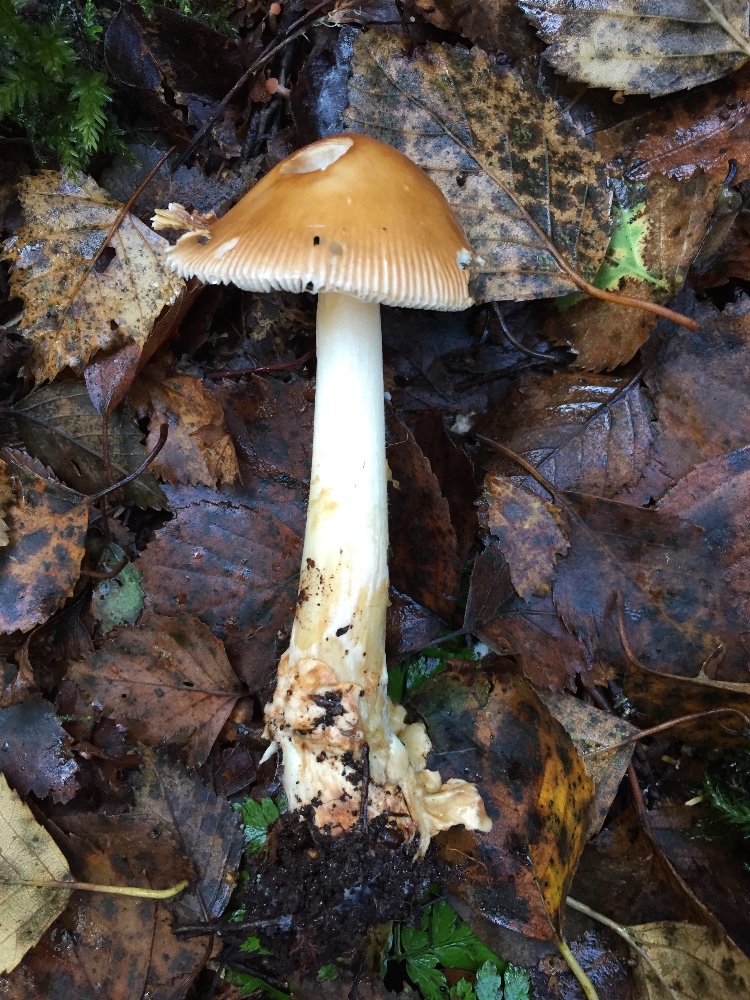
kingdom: Fungi
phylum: Basidiomycota
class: Agaricomycetes
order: Agaricales
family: Amanitaceae
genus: Amanita
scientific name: Amanita fulva
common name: brun kam-fluesvamp
